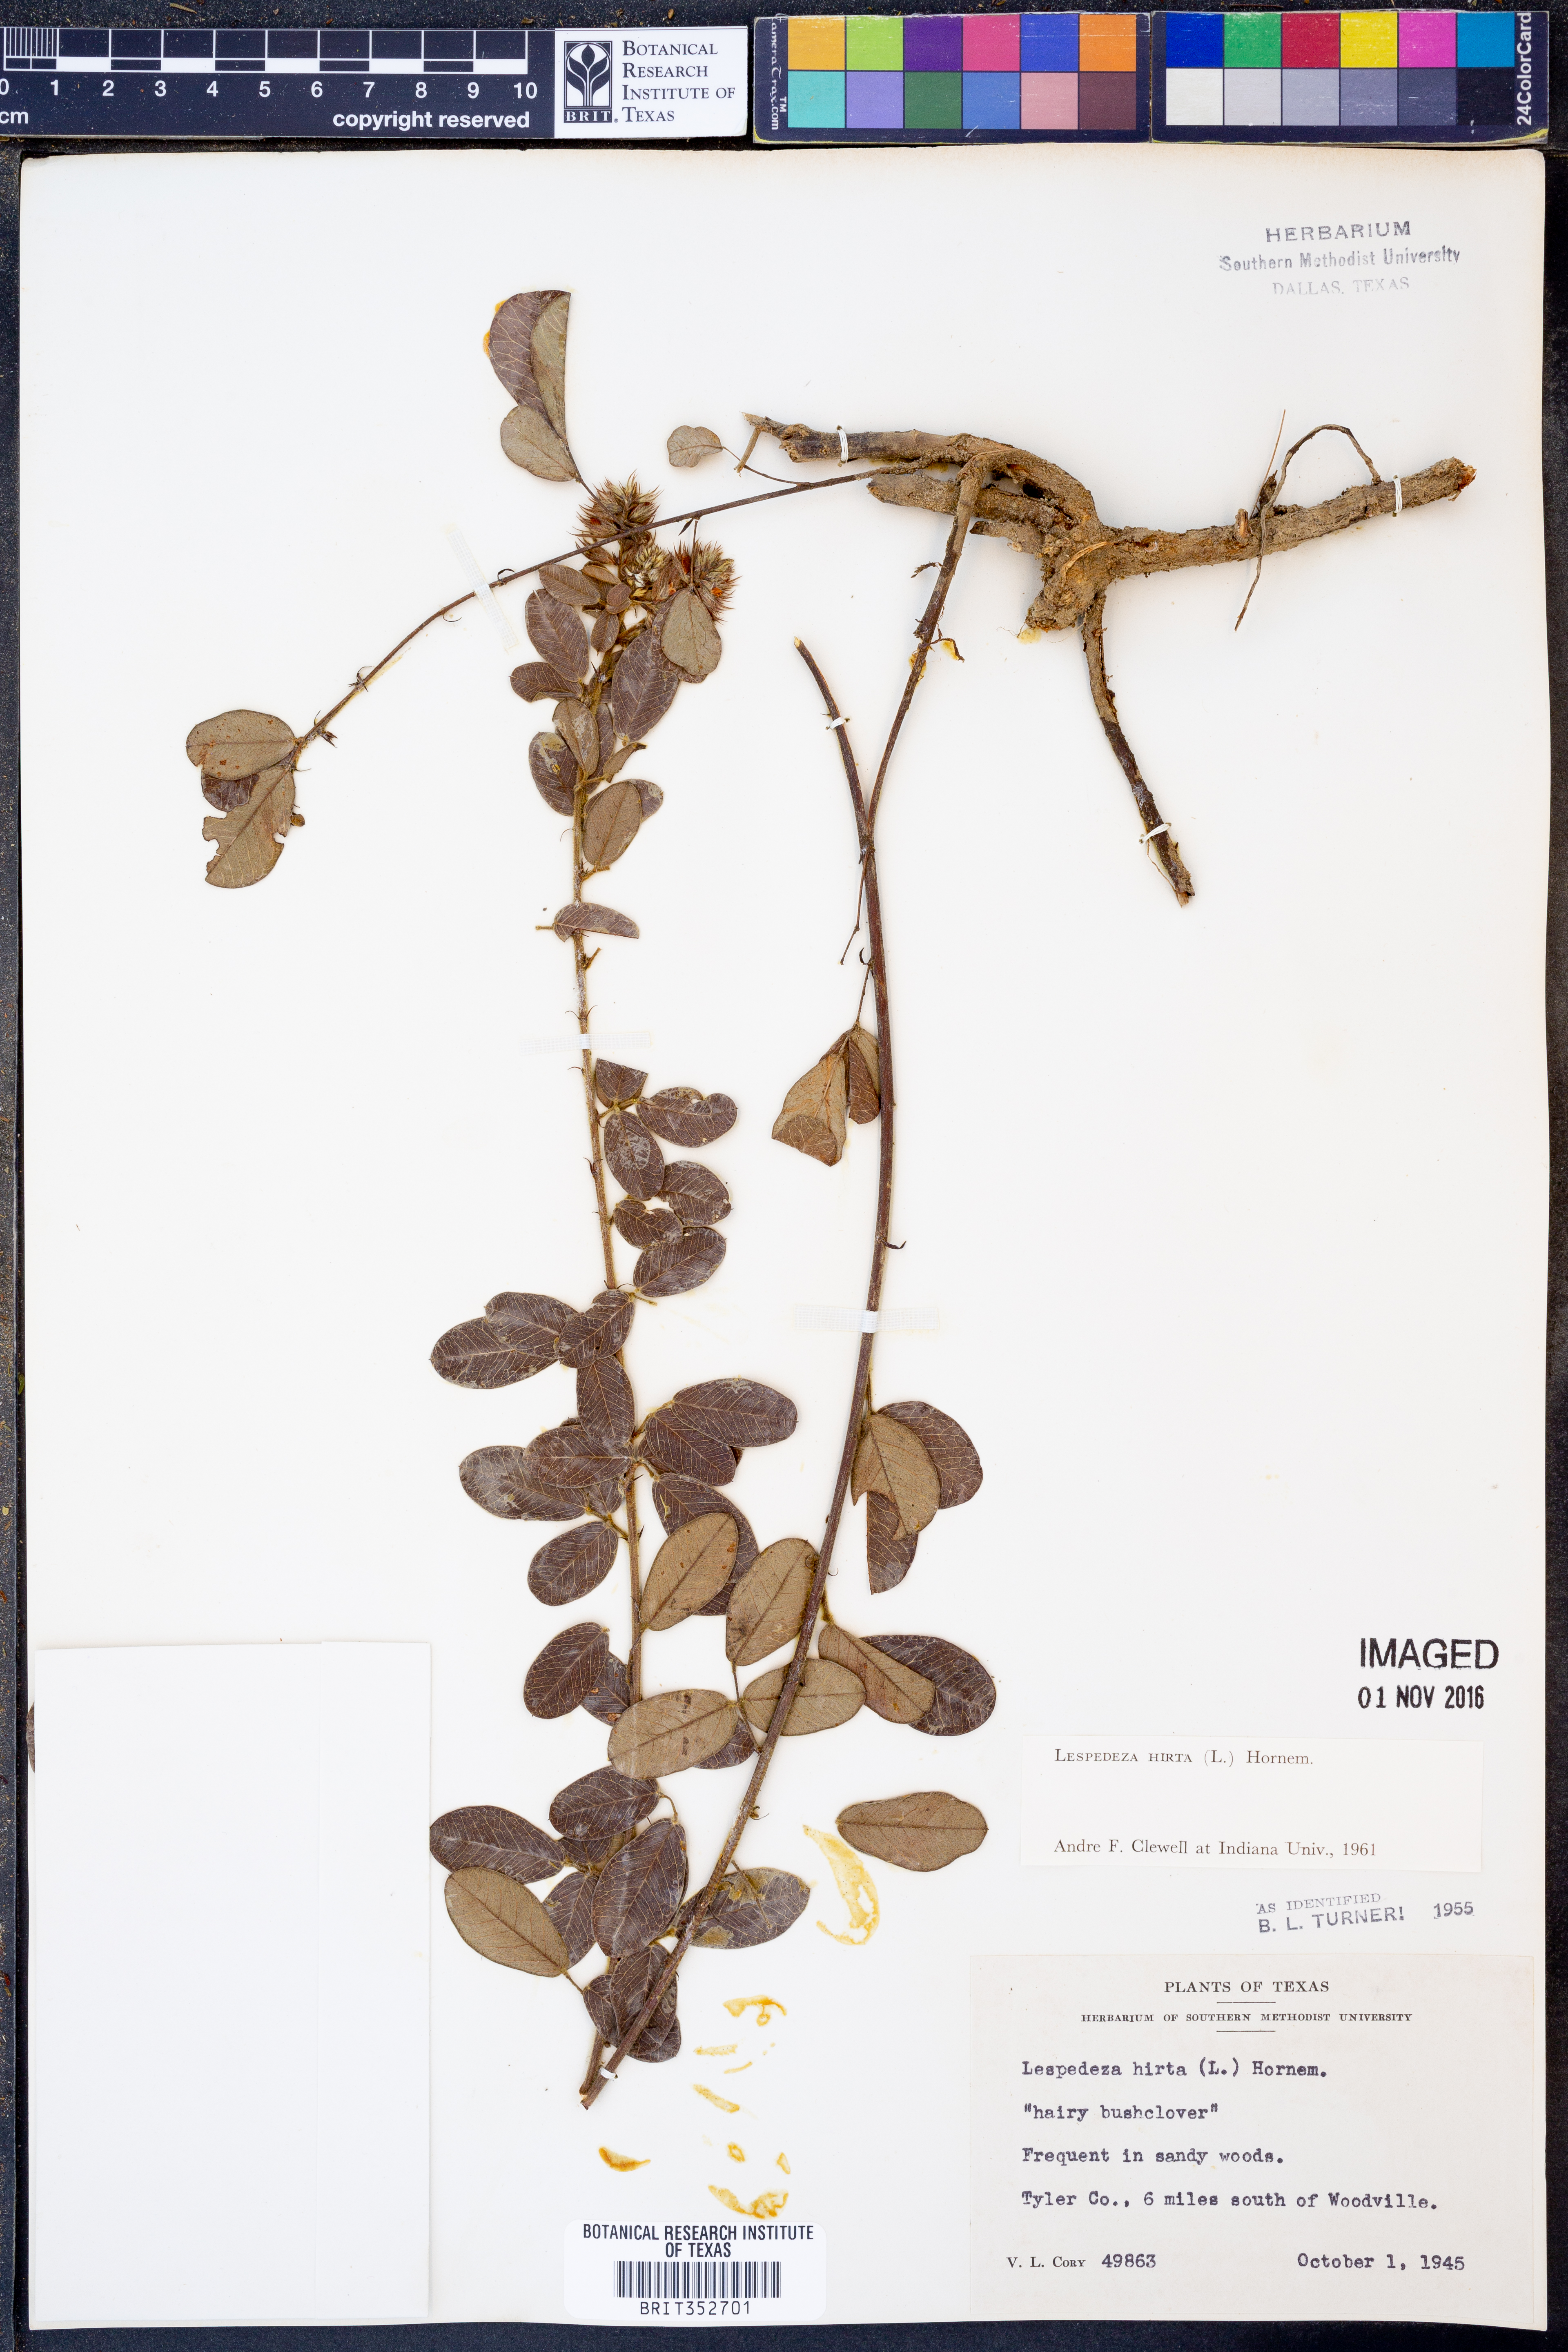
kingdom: Plantae
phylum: Tracheophyta
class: Magnoliopsida
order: Fabales
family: Fabaceae
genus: Lespedeza
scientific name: Lespedeza hirta
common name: Hairy lespedeza
